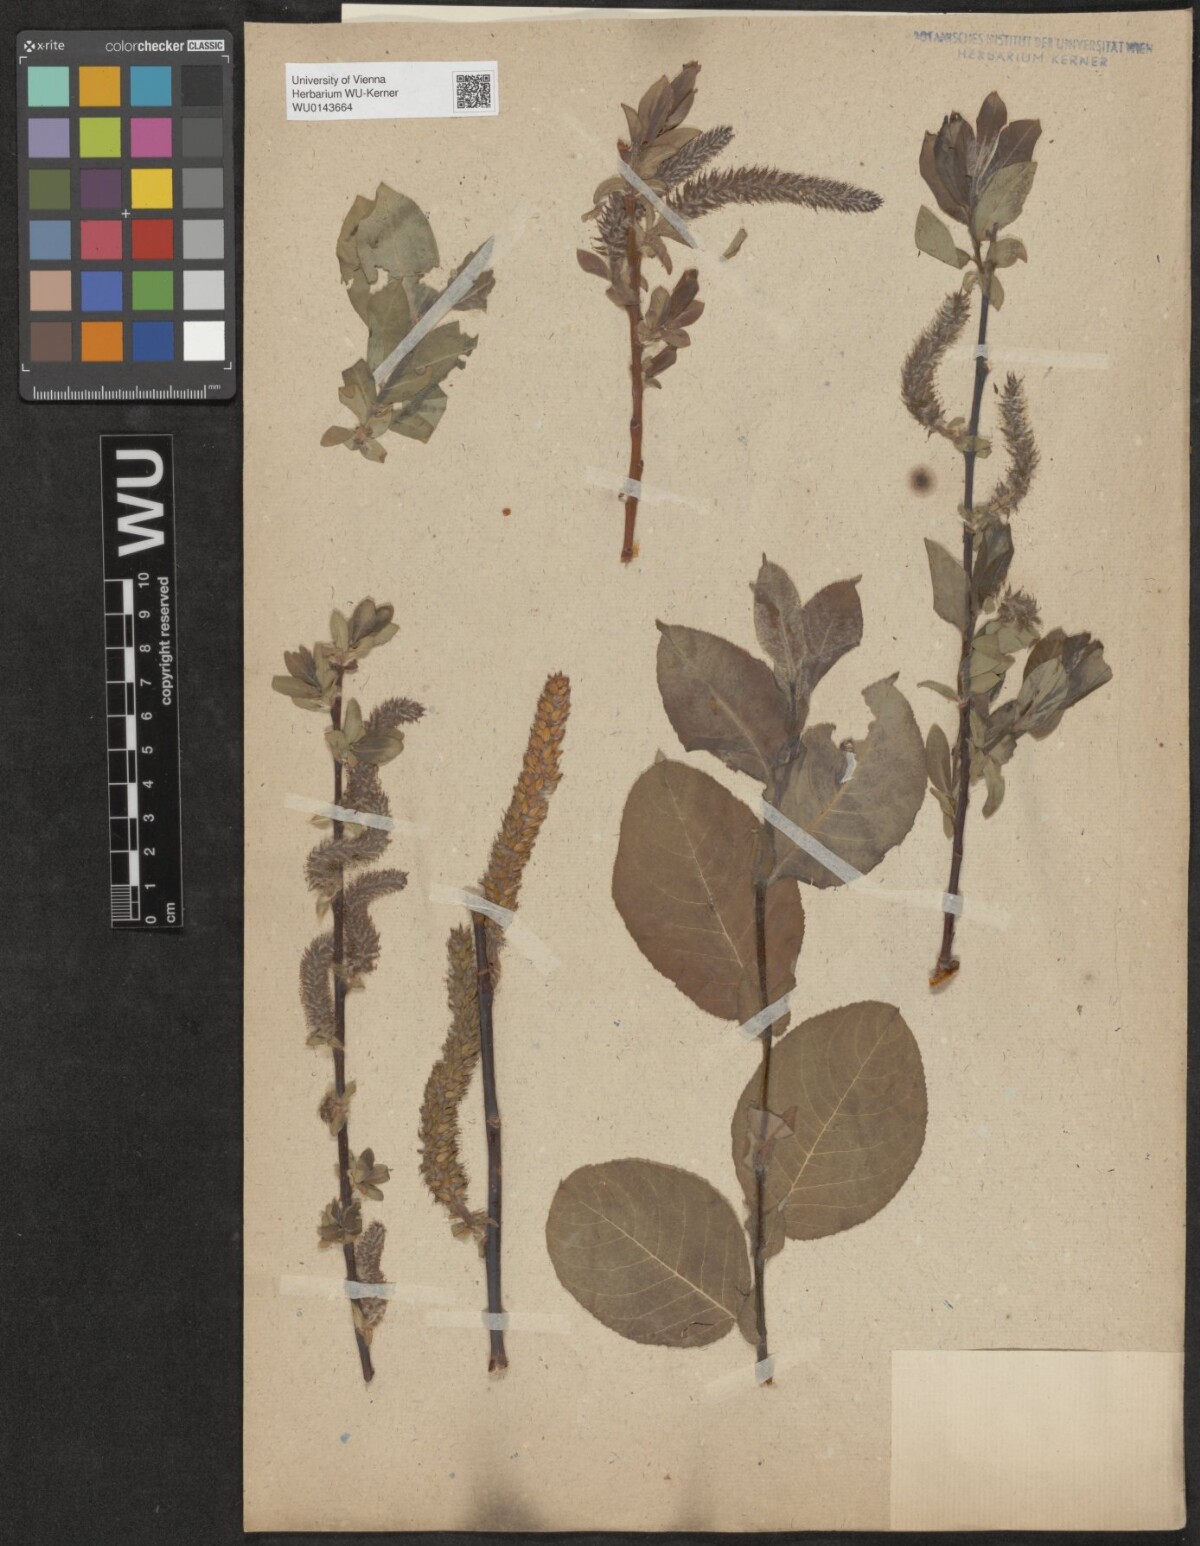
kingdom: Plantae
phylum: Tracheophyta
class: Magnoliopsida
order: Malpighiales
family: Salicaceae
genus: Salix
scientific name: Salix
